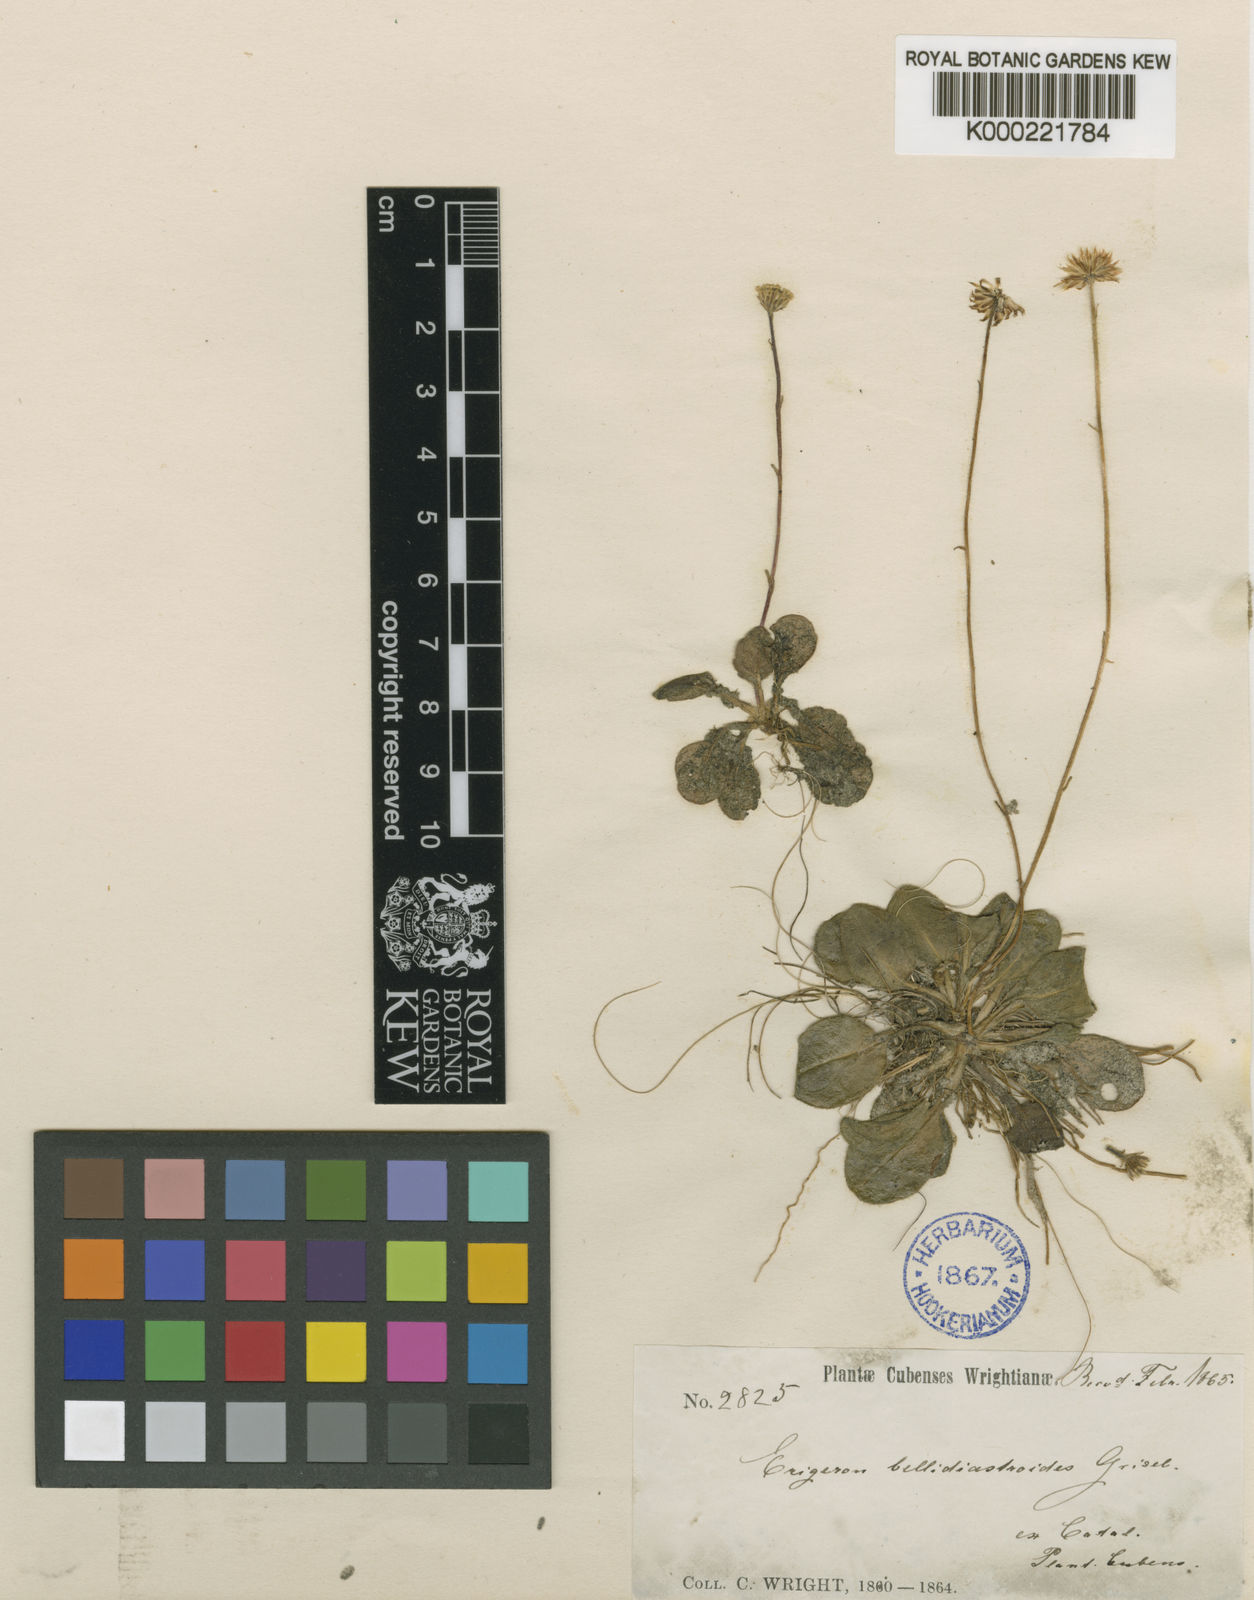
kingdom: Plantae
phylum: Tracheophyta
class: Magnoliopsida
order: Asterales
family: Asteraceae
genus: Erigeron
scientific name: Erigeron bellidiastroides
